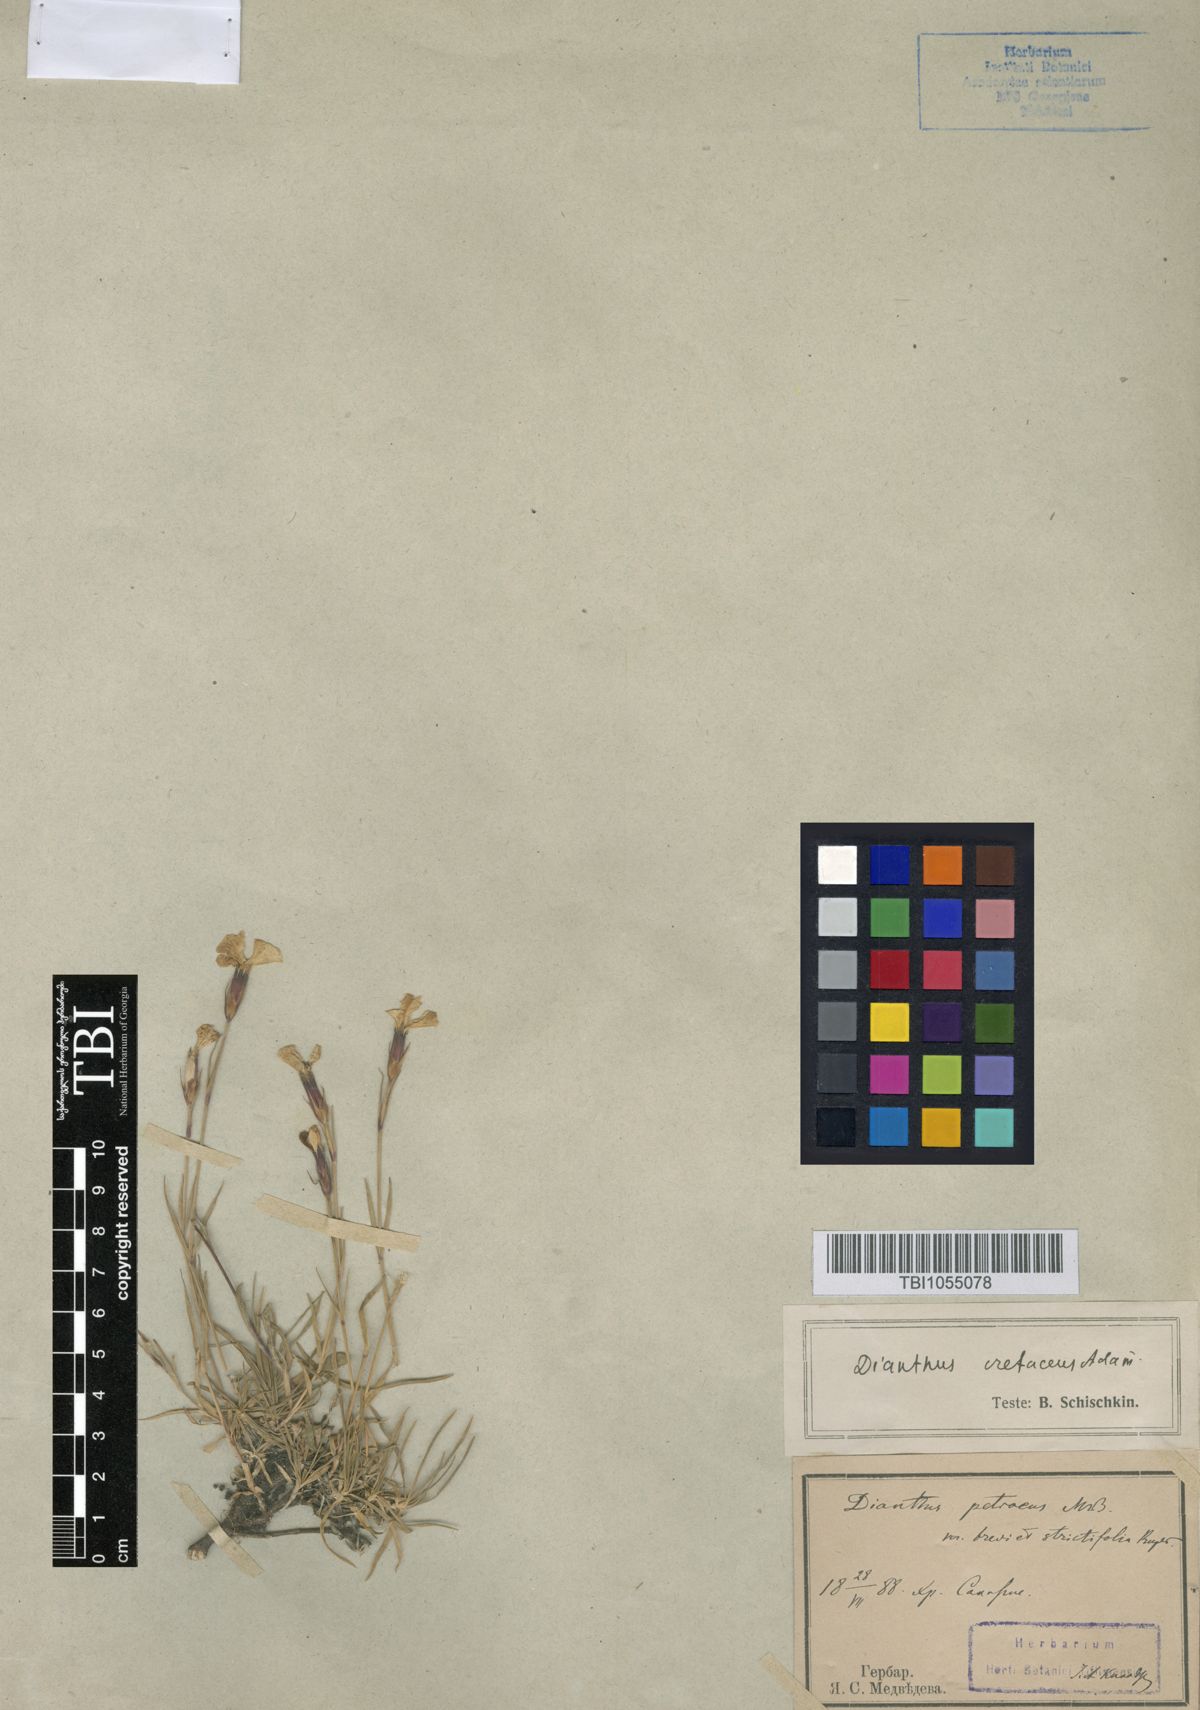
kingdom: Plantae
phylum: Tracheophyta
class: Magnoliopsida
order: Caryophyllales
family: Caryophyllaceae
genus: Dianthus
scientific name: Dianthus cretaceus
